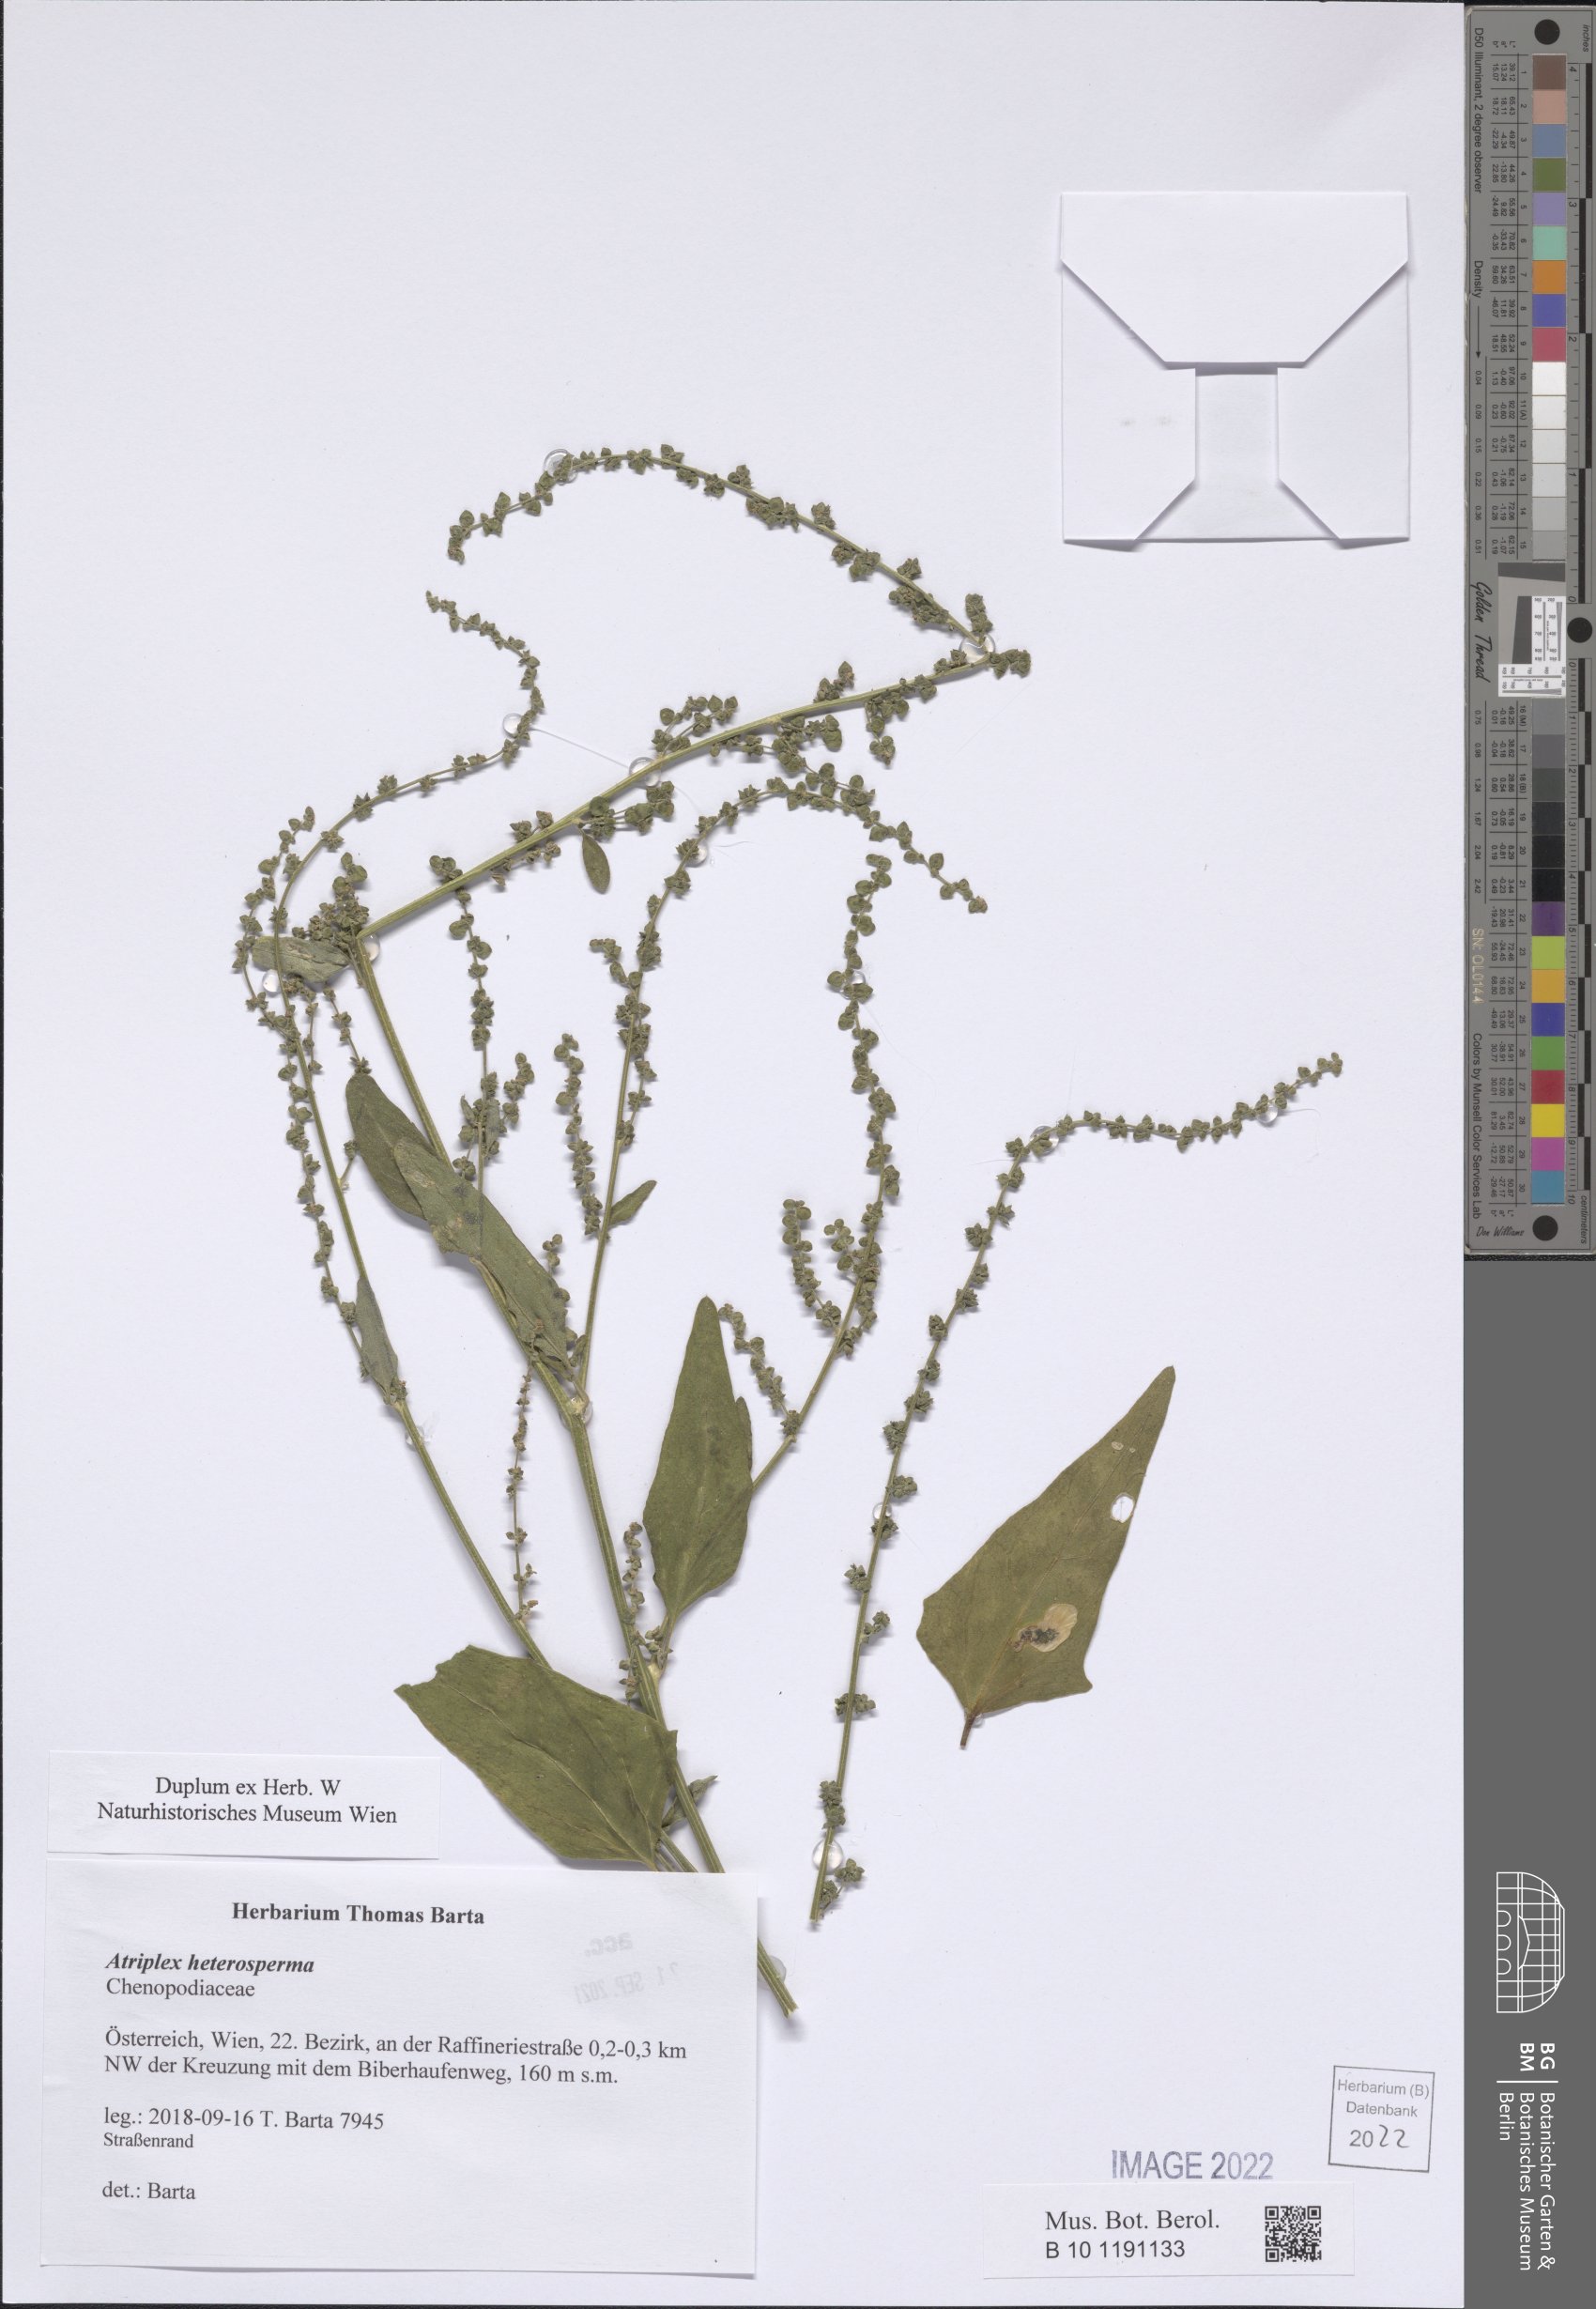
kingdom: Plantae
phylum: Tracheophyta
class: Magnoliopsida
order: Caryophyllales
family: Amaranthaceae
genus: Atriplex
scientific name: Atriplex micrantha
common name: Twoscale saltbush
